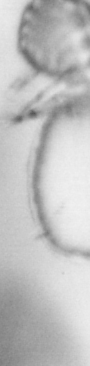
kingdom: Animalia
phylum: Annelida
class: Polychaeta
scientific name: Polychaeta
